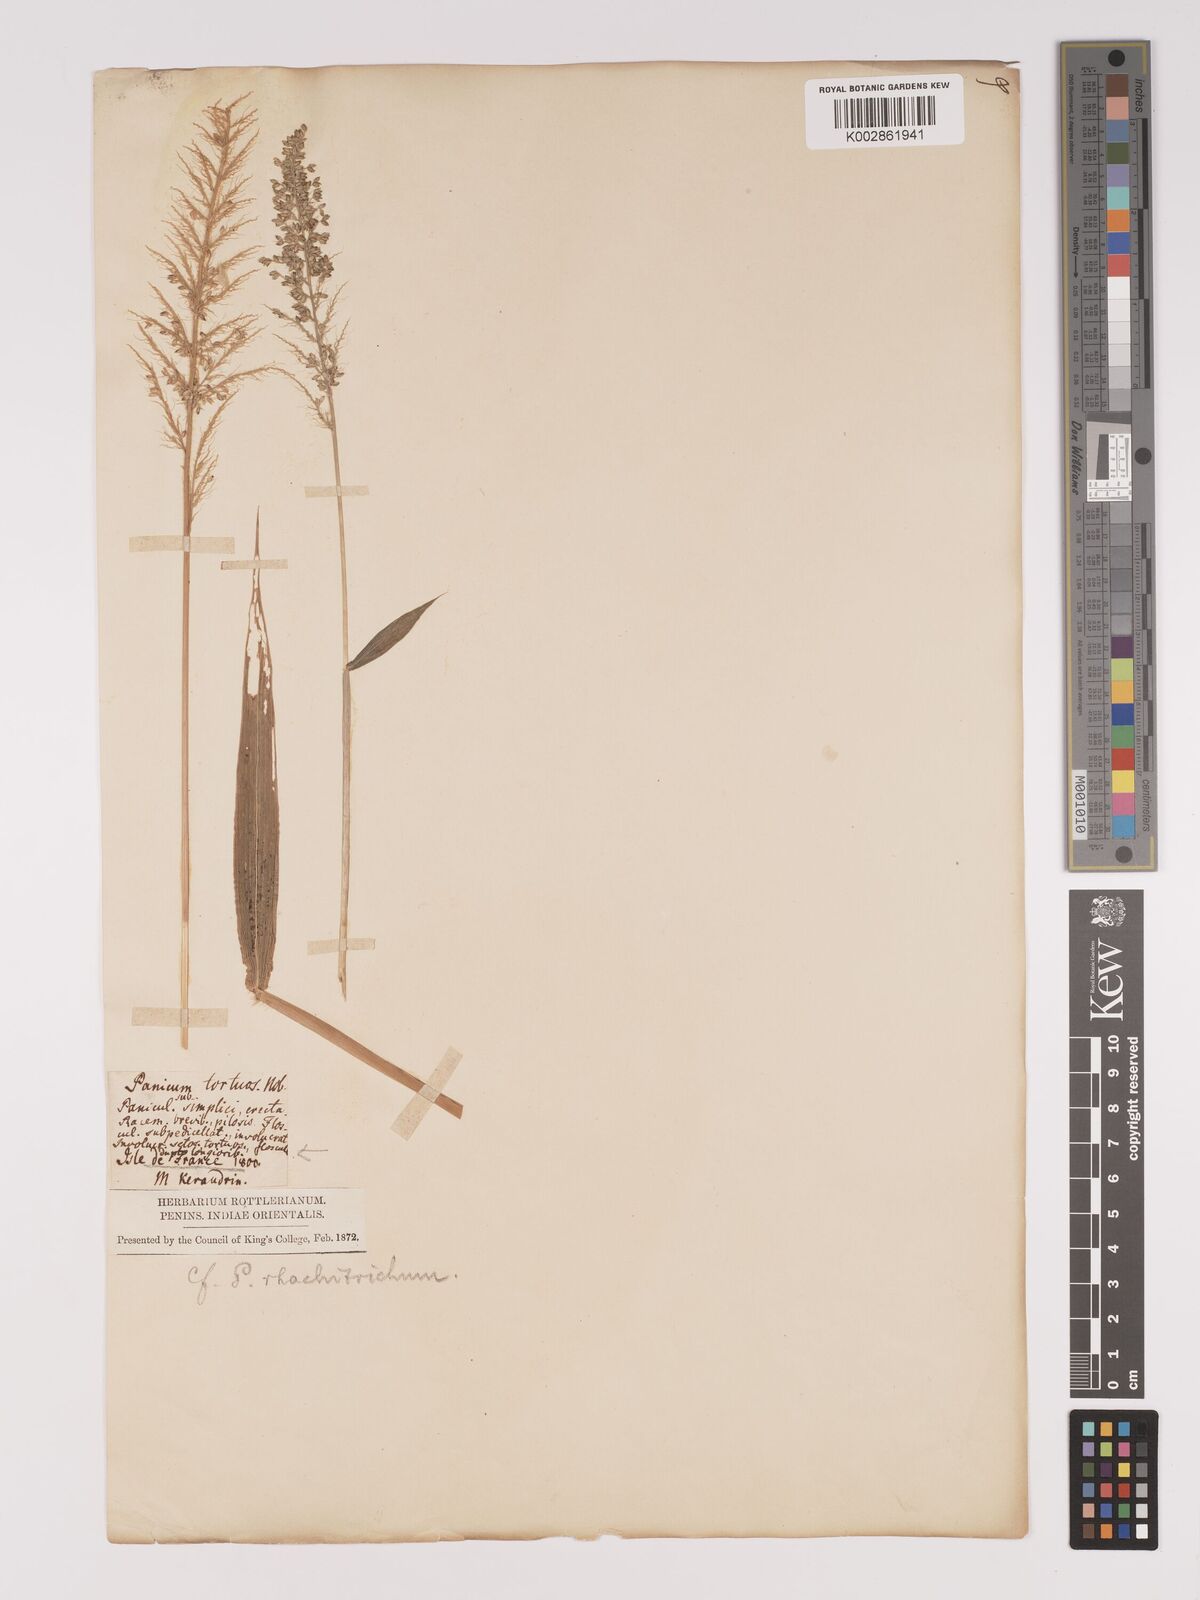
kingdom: Plantae
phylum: Tracheophyta
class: Liliopsida
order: Poales
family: Poaceae
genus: Setaria
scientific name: Setaria barbata
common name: East indian bristlegrass
